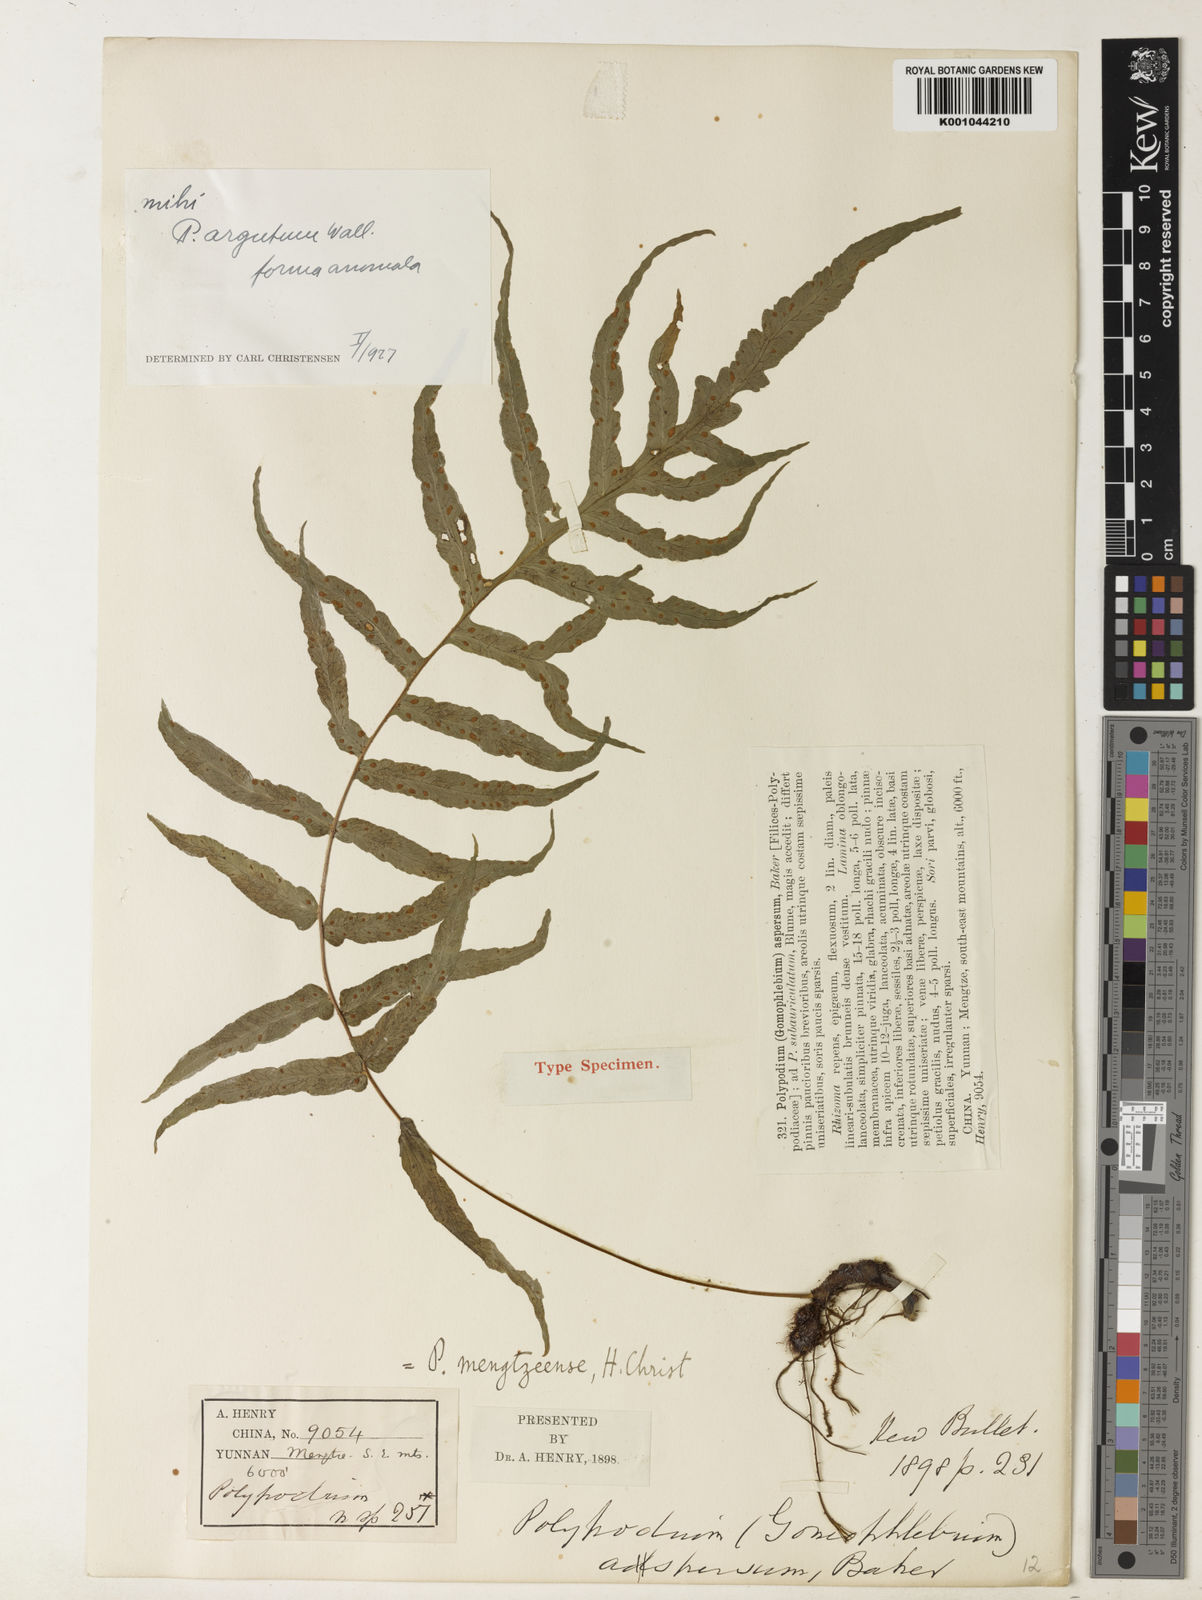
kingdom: Plantae
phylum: Tracheophyta
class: Polypodiopsida
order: Polypodiales
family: Polypodiaceae
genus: Goniophlebium
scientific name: Goniophlebium argutum
